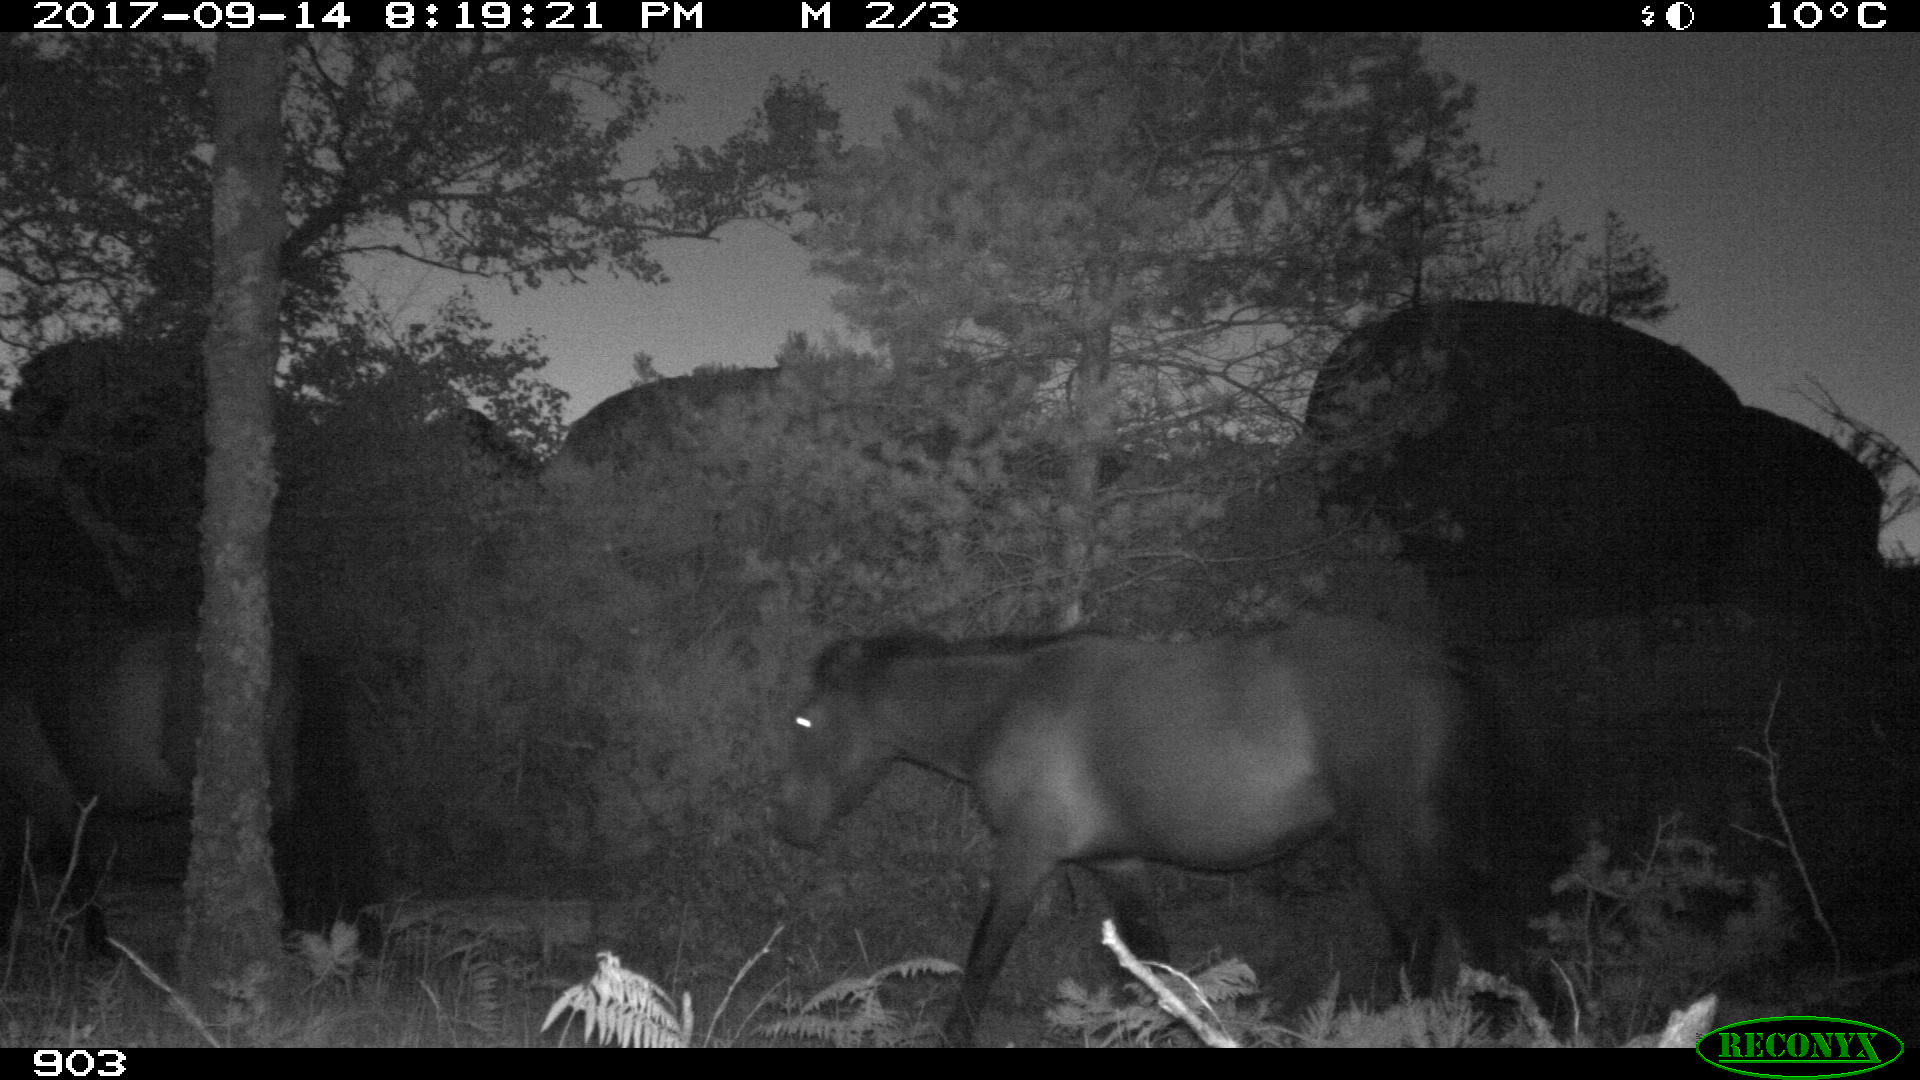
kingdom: Animalia
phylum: Chordata
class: Mammalia
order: Perissodactyla
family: Equidae
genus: Equus
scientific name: Equus caballus
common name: Horse
